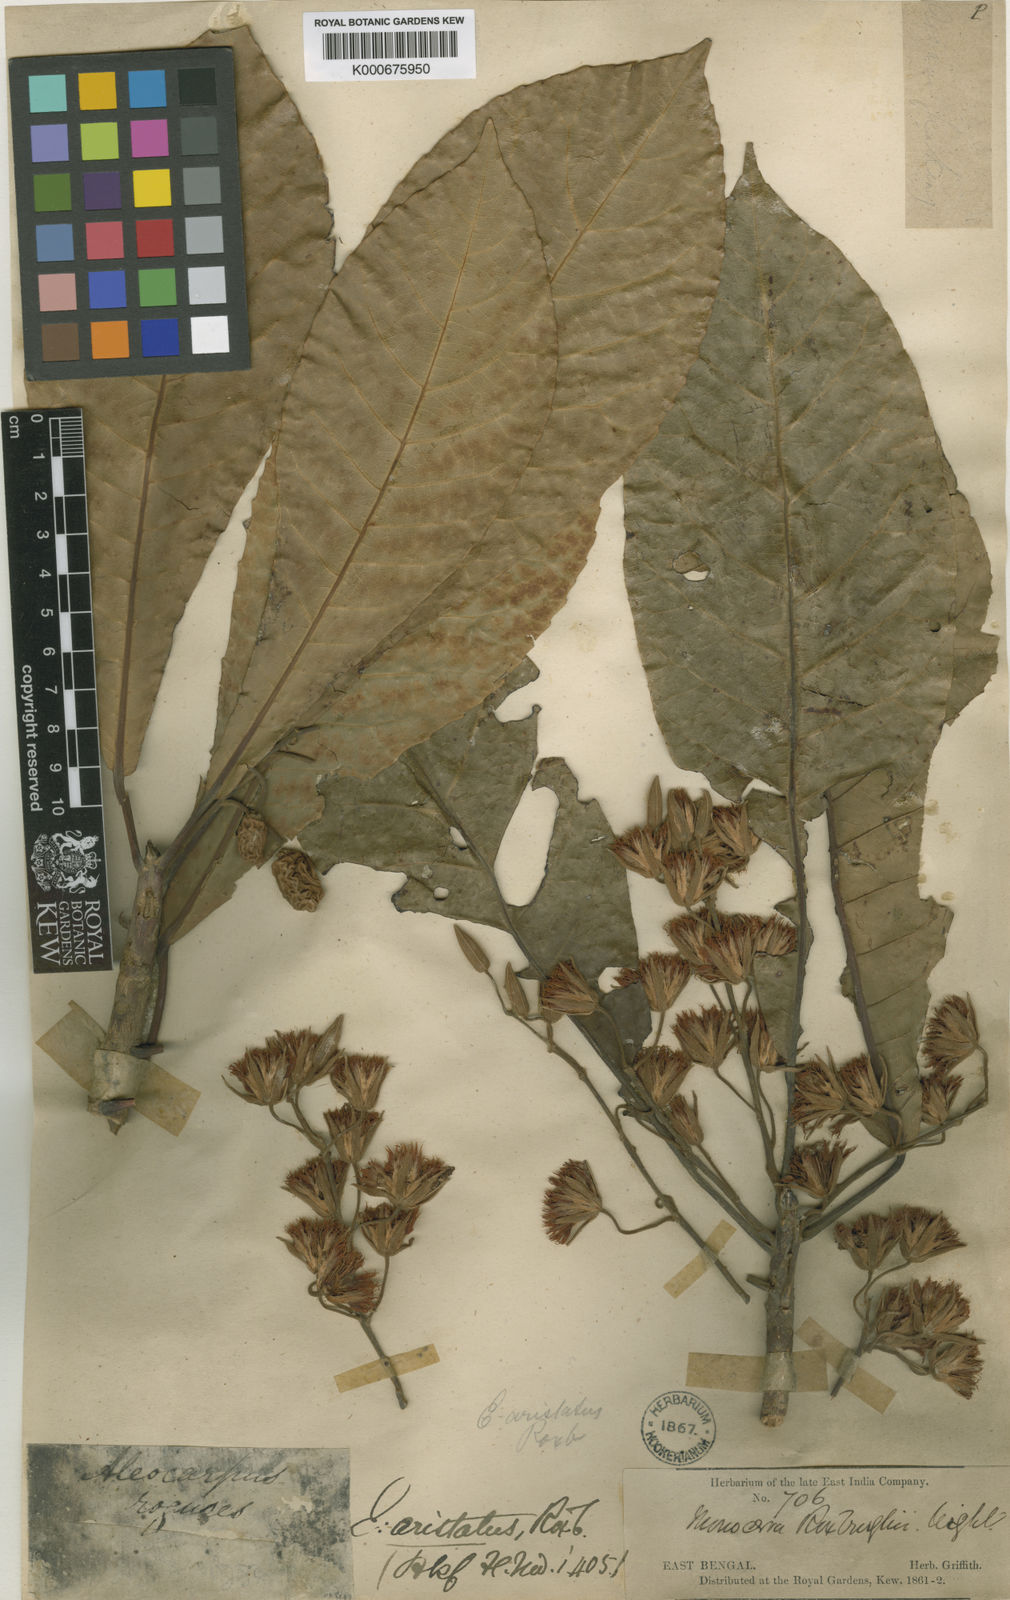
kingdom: Plantae
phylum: Tracheophyta
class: Magnoliopsida
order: Oxalidales
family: Elaeocarpaceae
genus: Elaeocarpus
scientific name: Elaeocarpus aristatus
